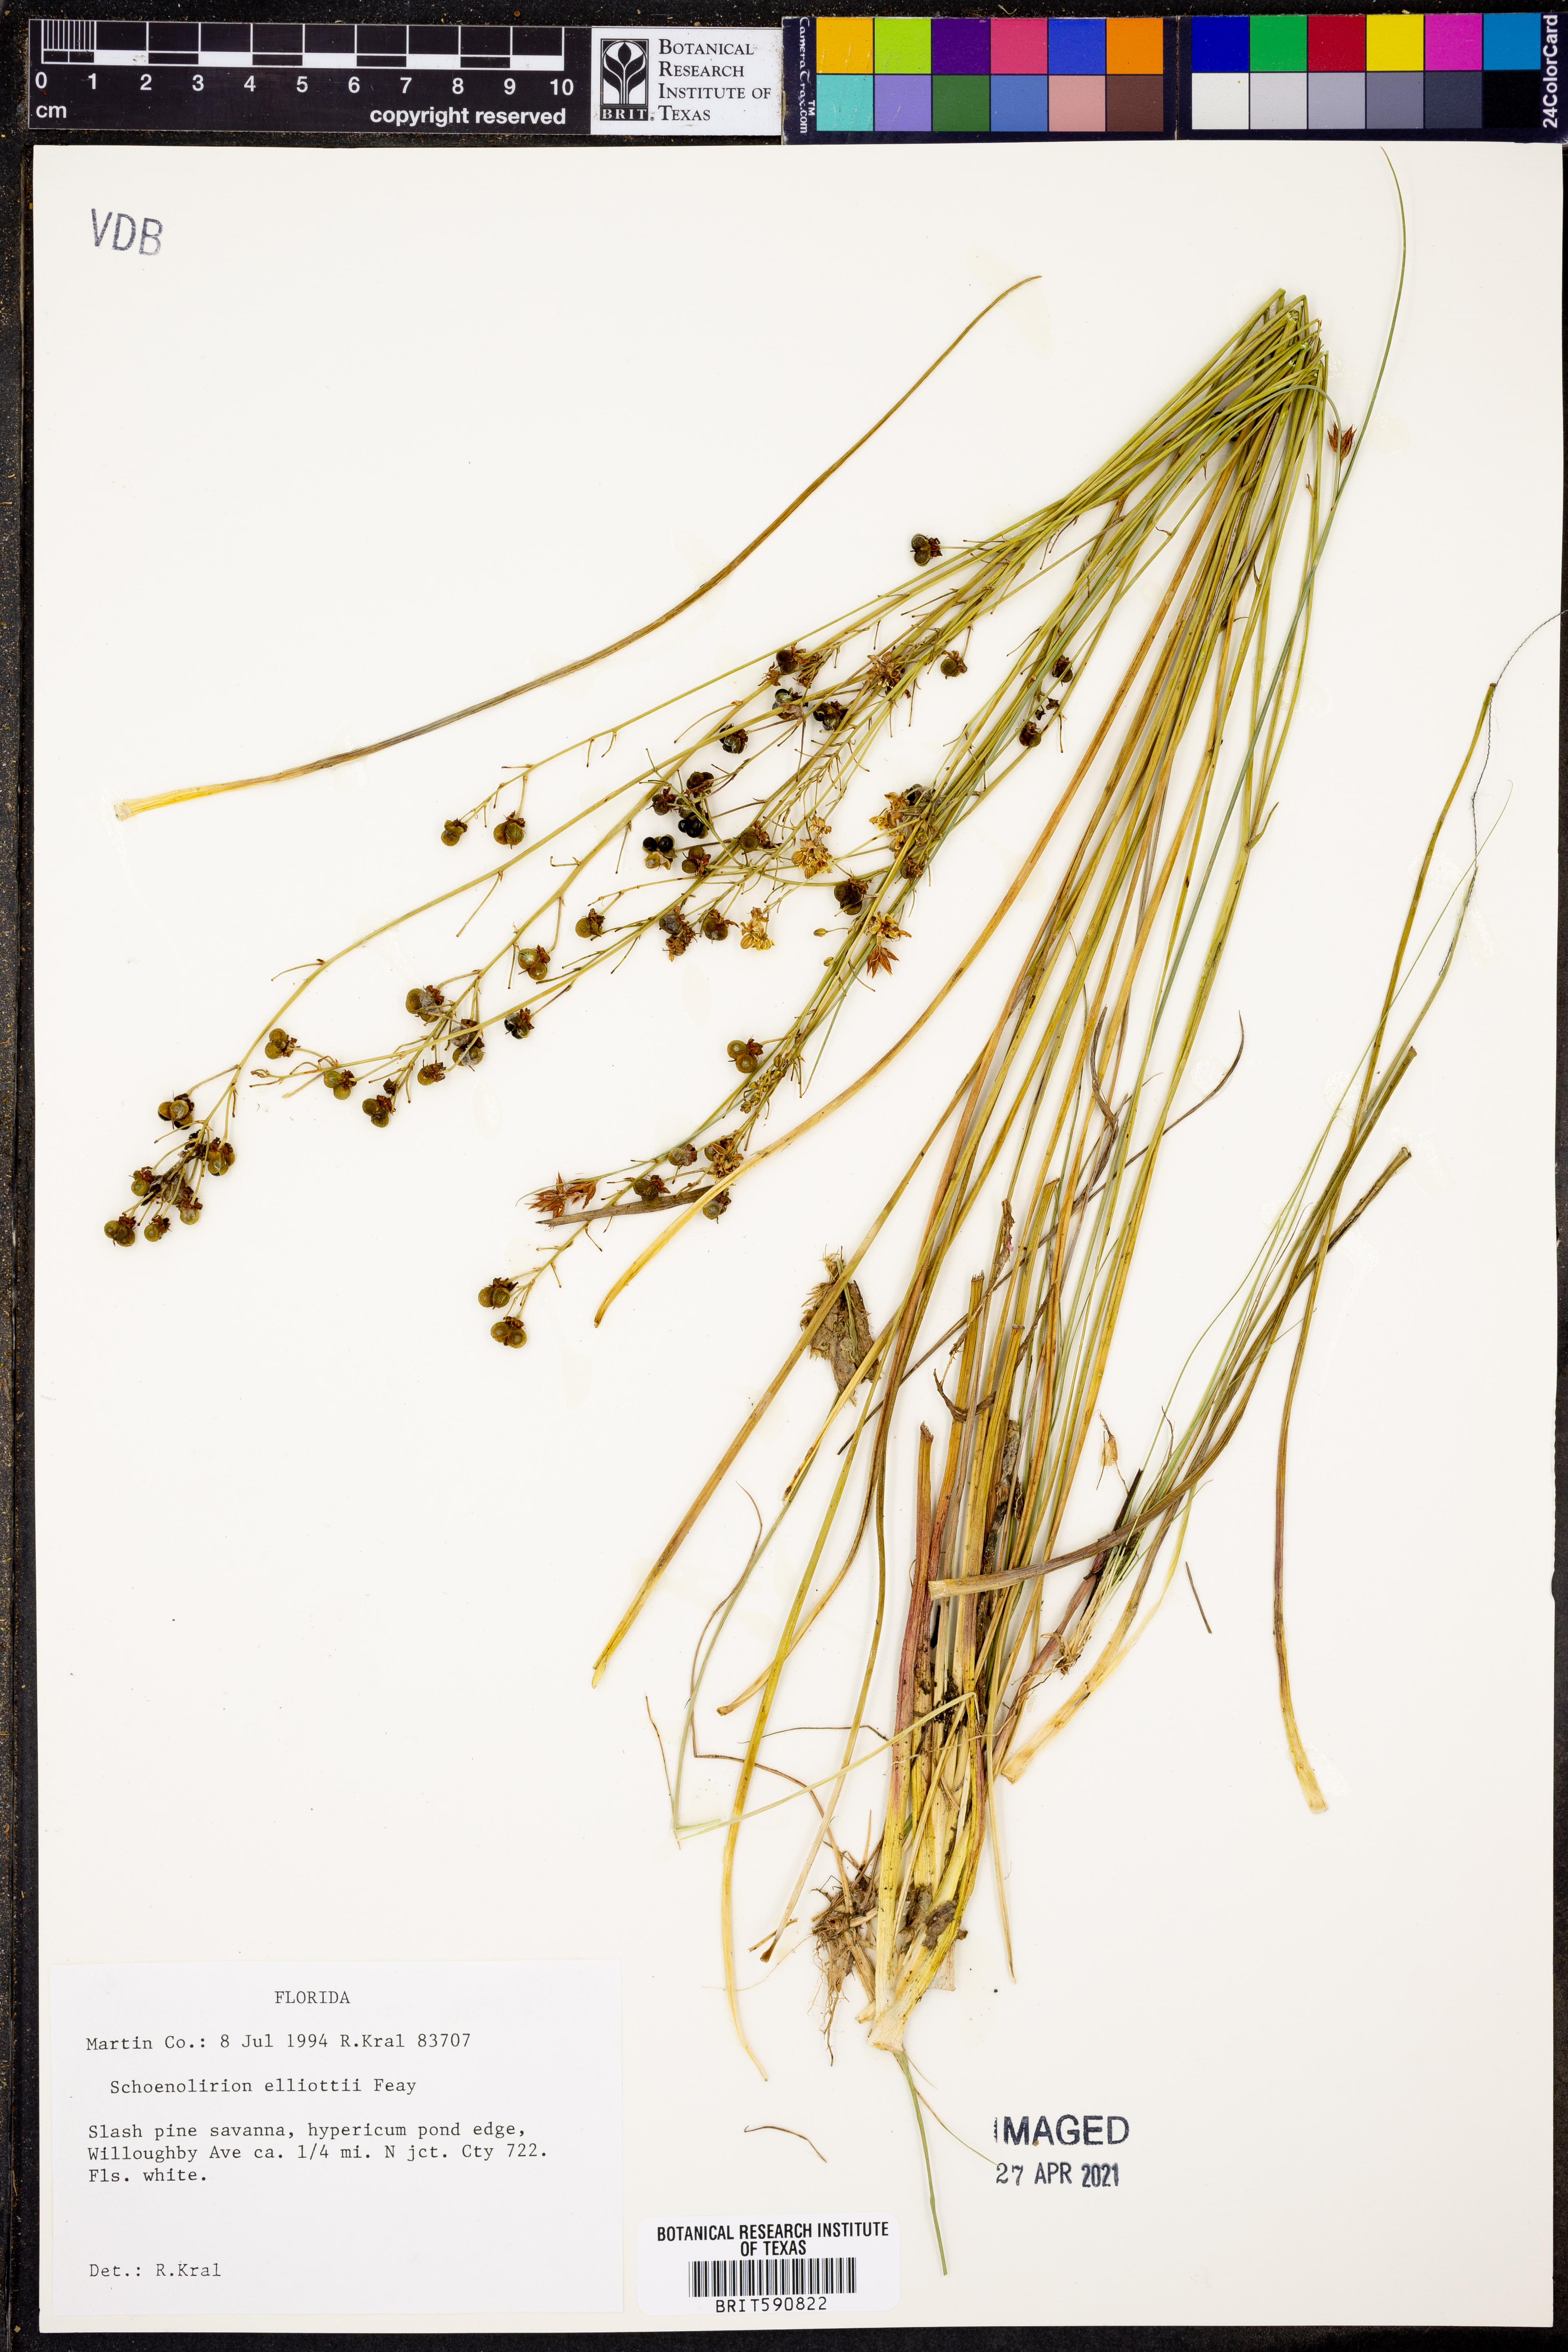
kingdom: Plantae
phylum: Tracheophyta
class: Liliopsida
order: Asparagales
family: Asparagaceae
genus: Schoenolirion
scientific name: Schoenolirion albiflorum
